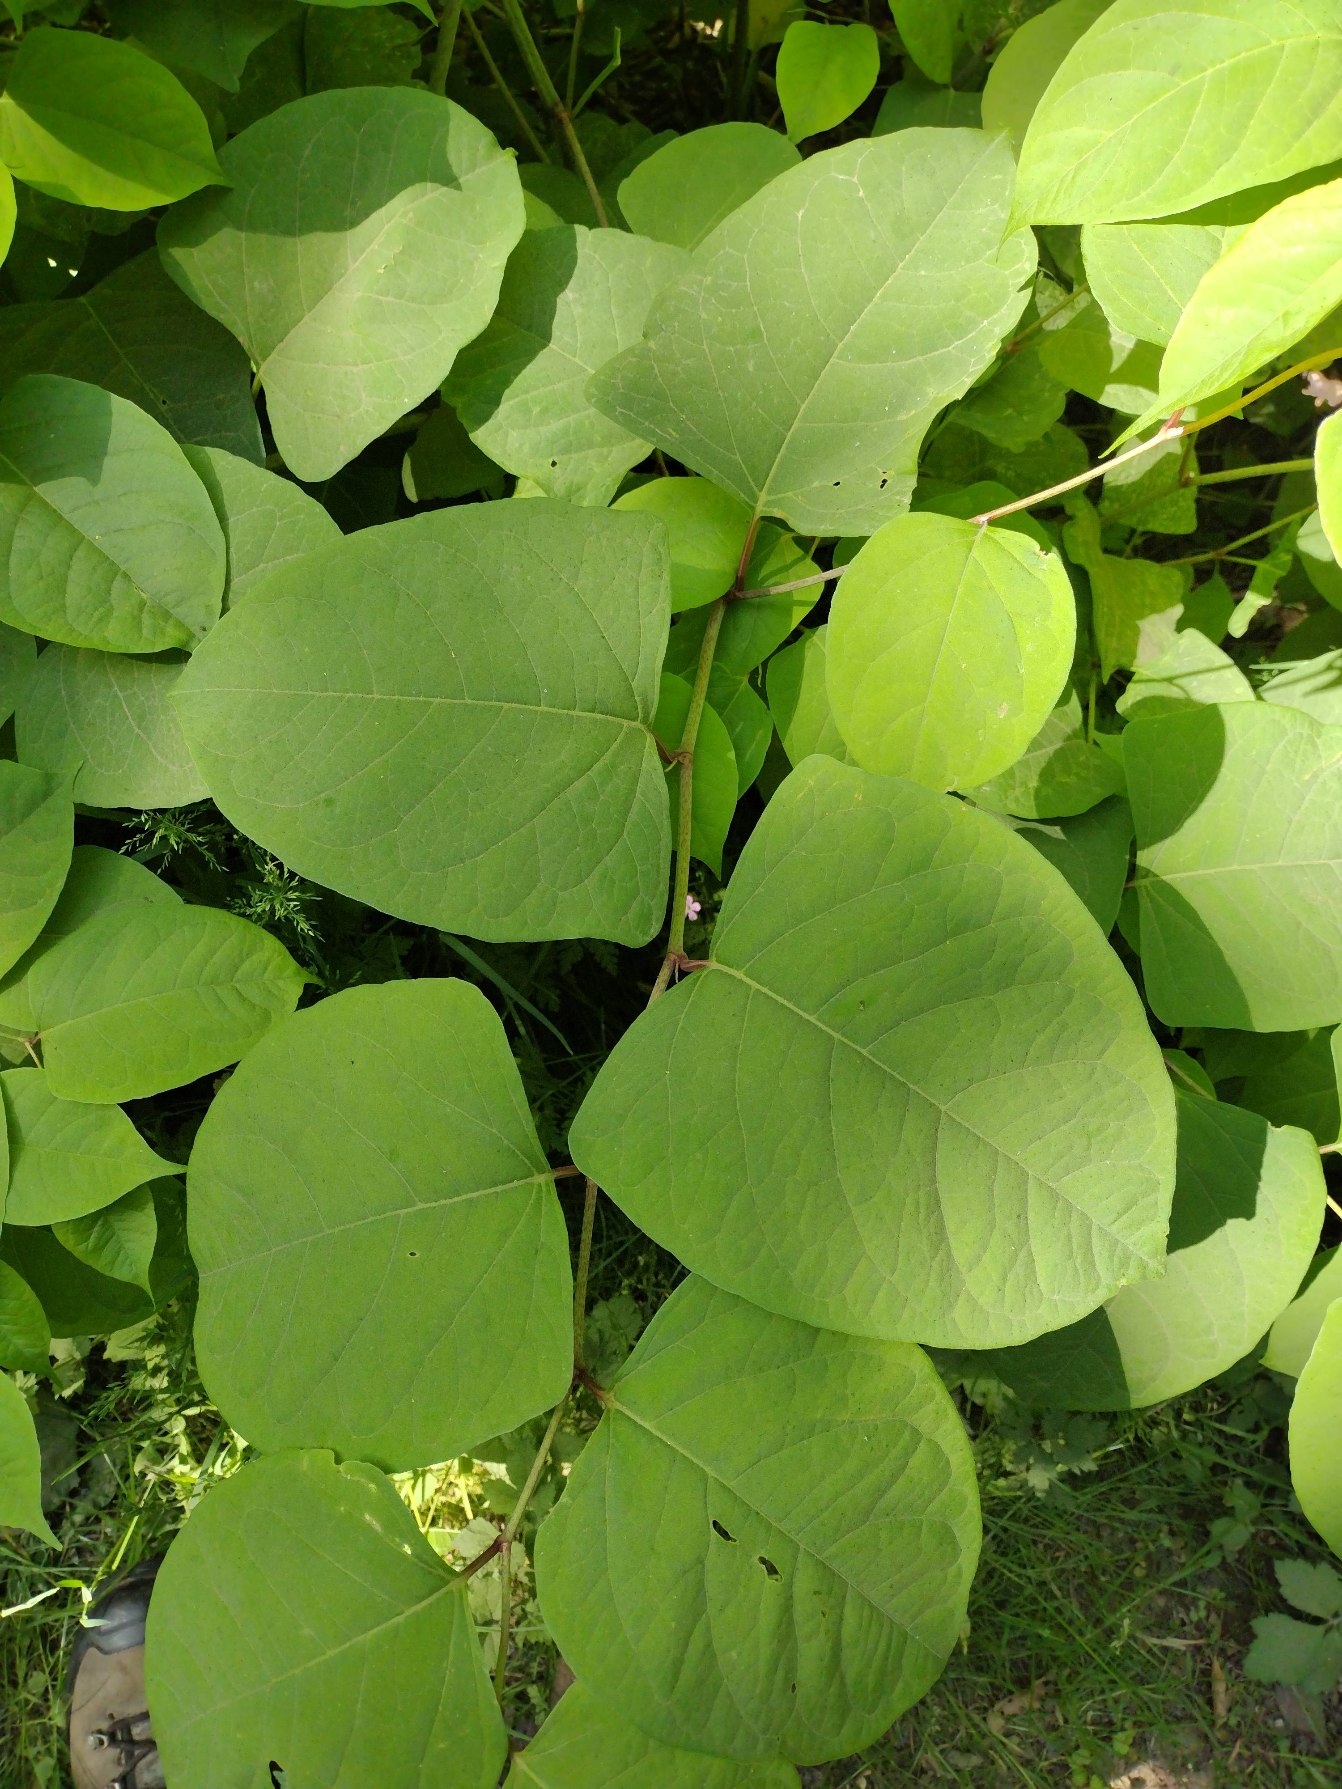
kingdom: Plantae
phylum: Tracheophyta
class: Magnoliopsida
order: Caryophyllales
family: Polygonaceae
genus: Reynoutria
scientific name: Reynoutria japonica
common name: Japan-pileurt
